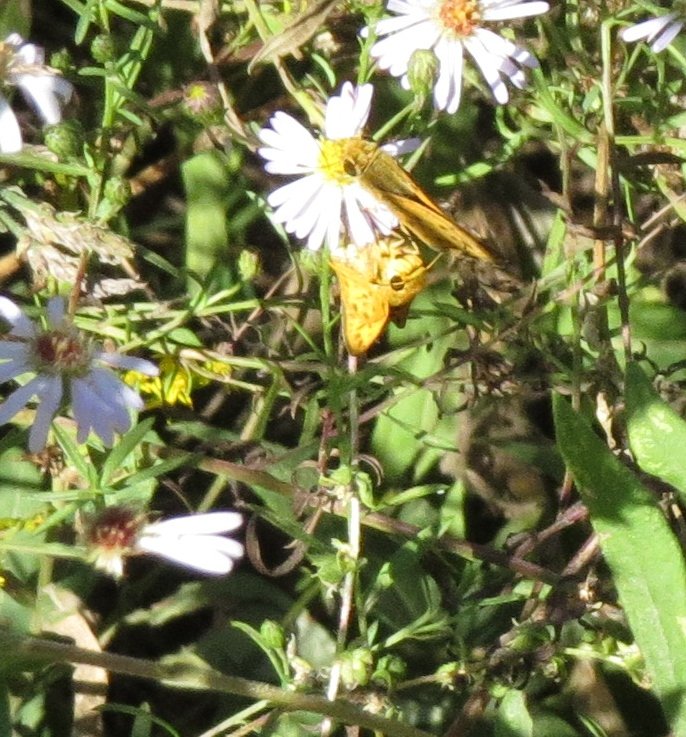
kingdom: Animalia
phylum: Arthropoda
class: Insecta
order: Lepidoptera
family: Hesperiidae
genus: Hylephila
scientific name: Hylephila phyleus
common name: Fiery Skipper
